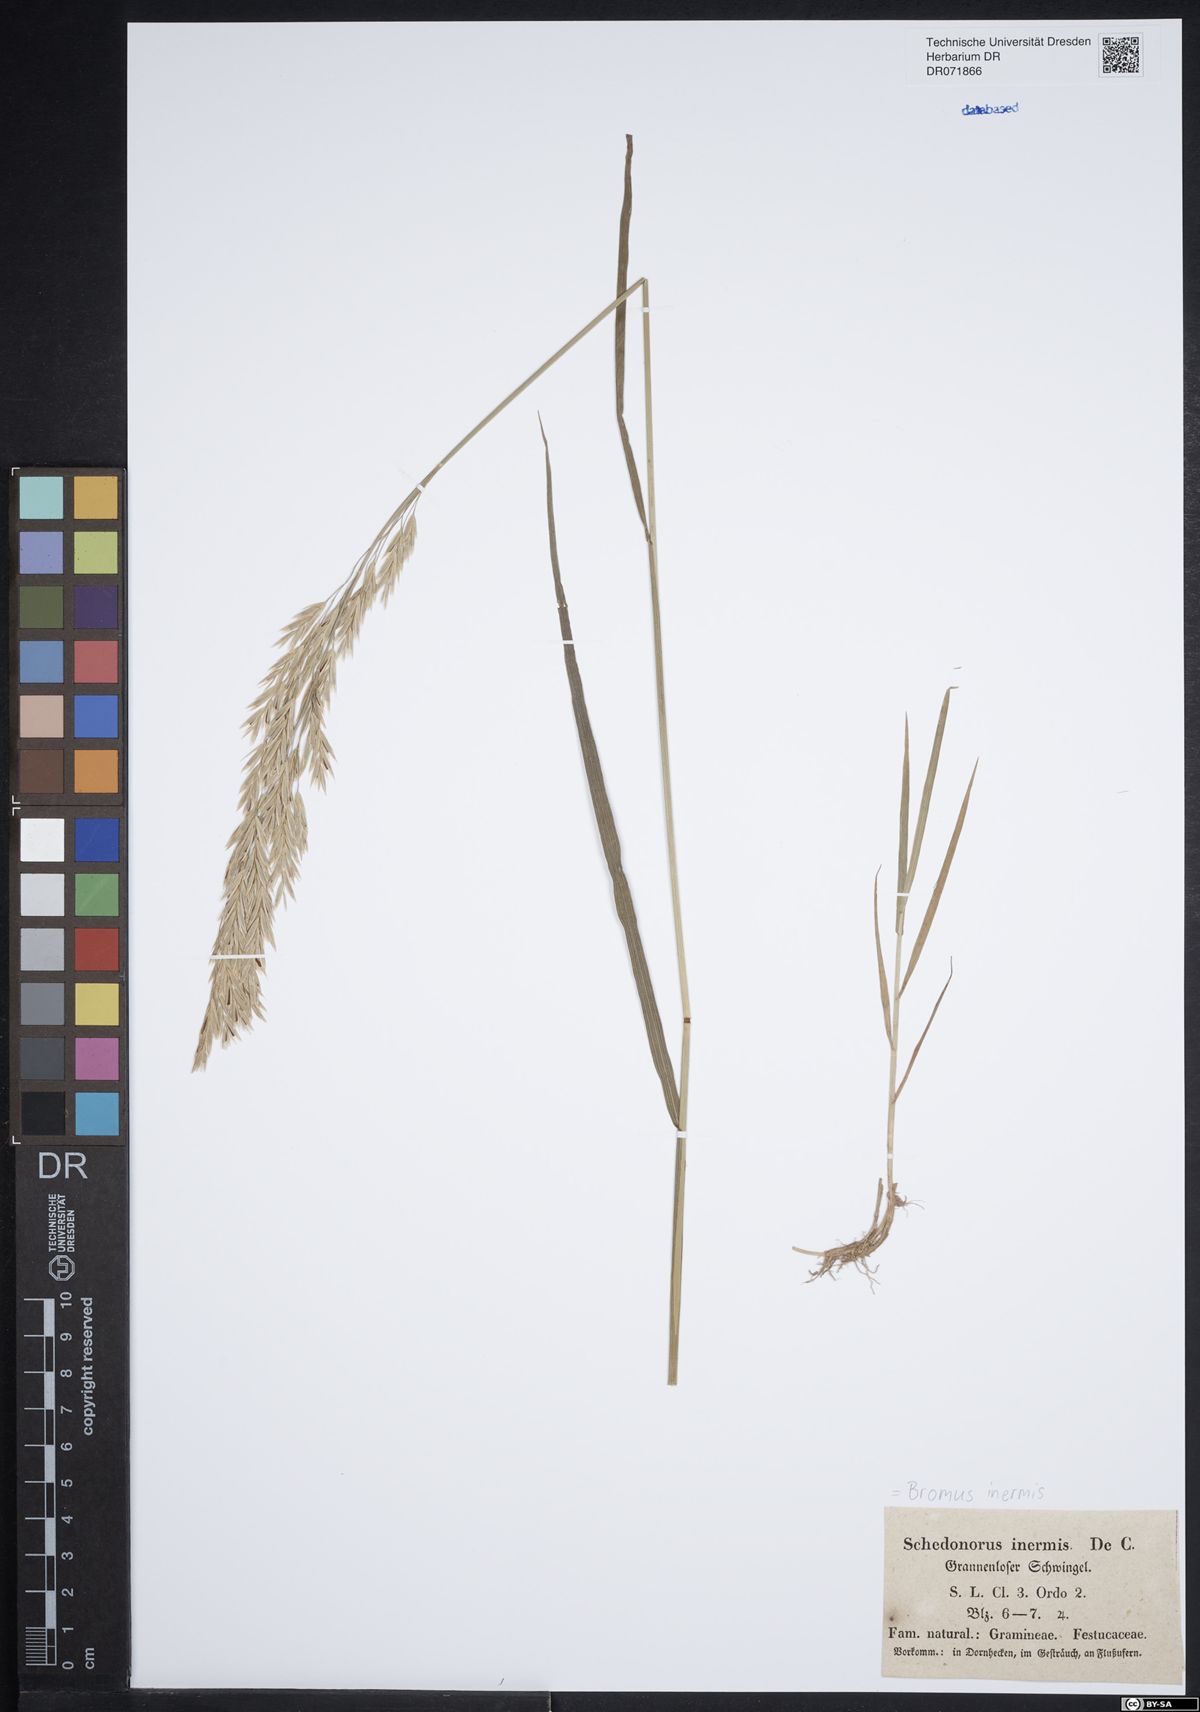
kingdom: Plantae
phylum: Tracheophyta
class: Liliopsida
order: Poales
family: Poaceae
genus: Bromus
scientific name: Bromus inermis
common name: Smooth brome
